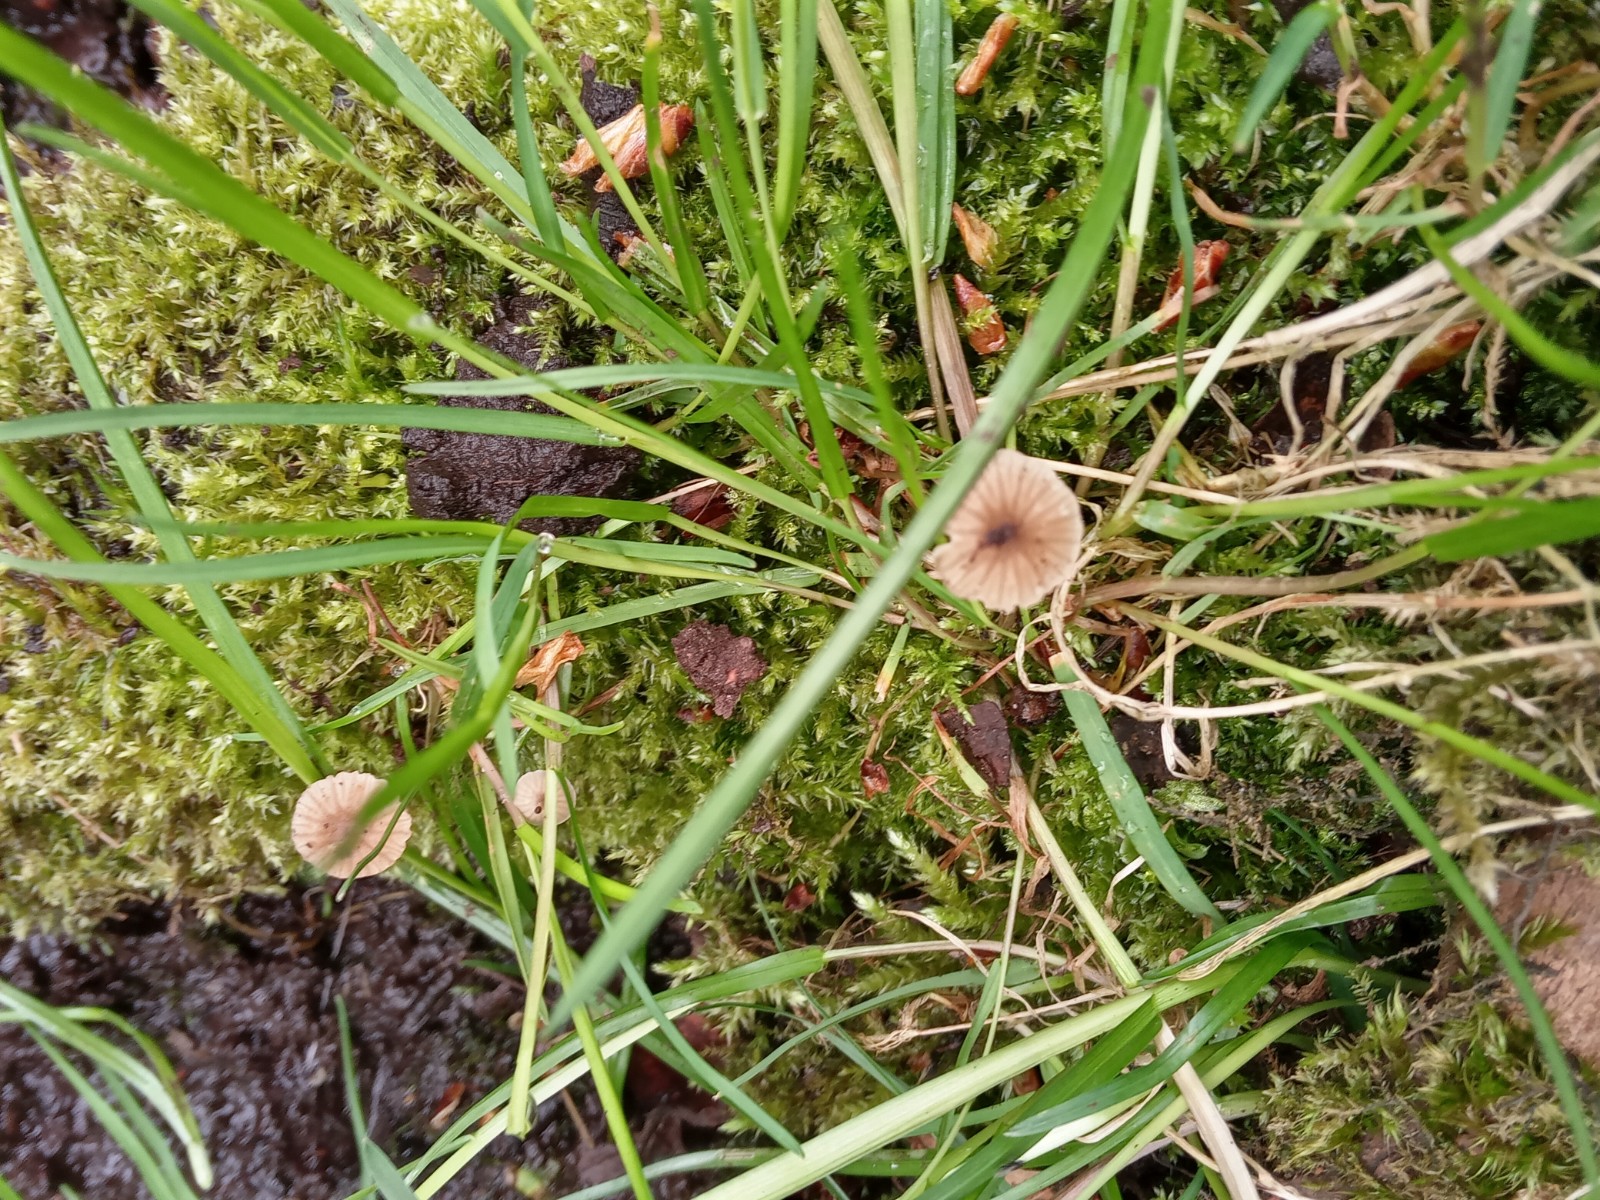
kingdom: Fungi
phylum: Basidiomycota
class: Agaricomycetes
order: Agaricales
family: Porotheleaceae
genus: Phloeomana
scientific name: Phloeomana speirea
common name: kvist-huesvamp
